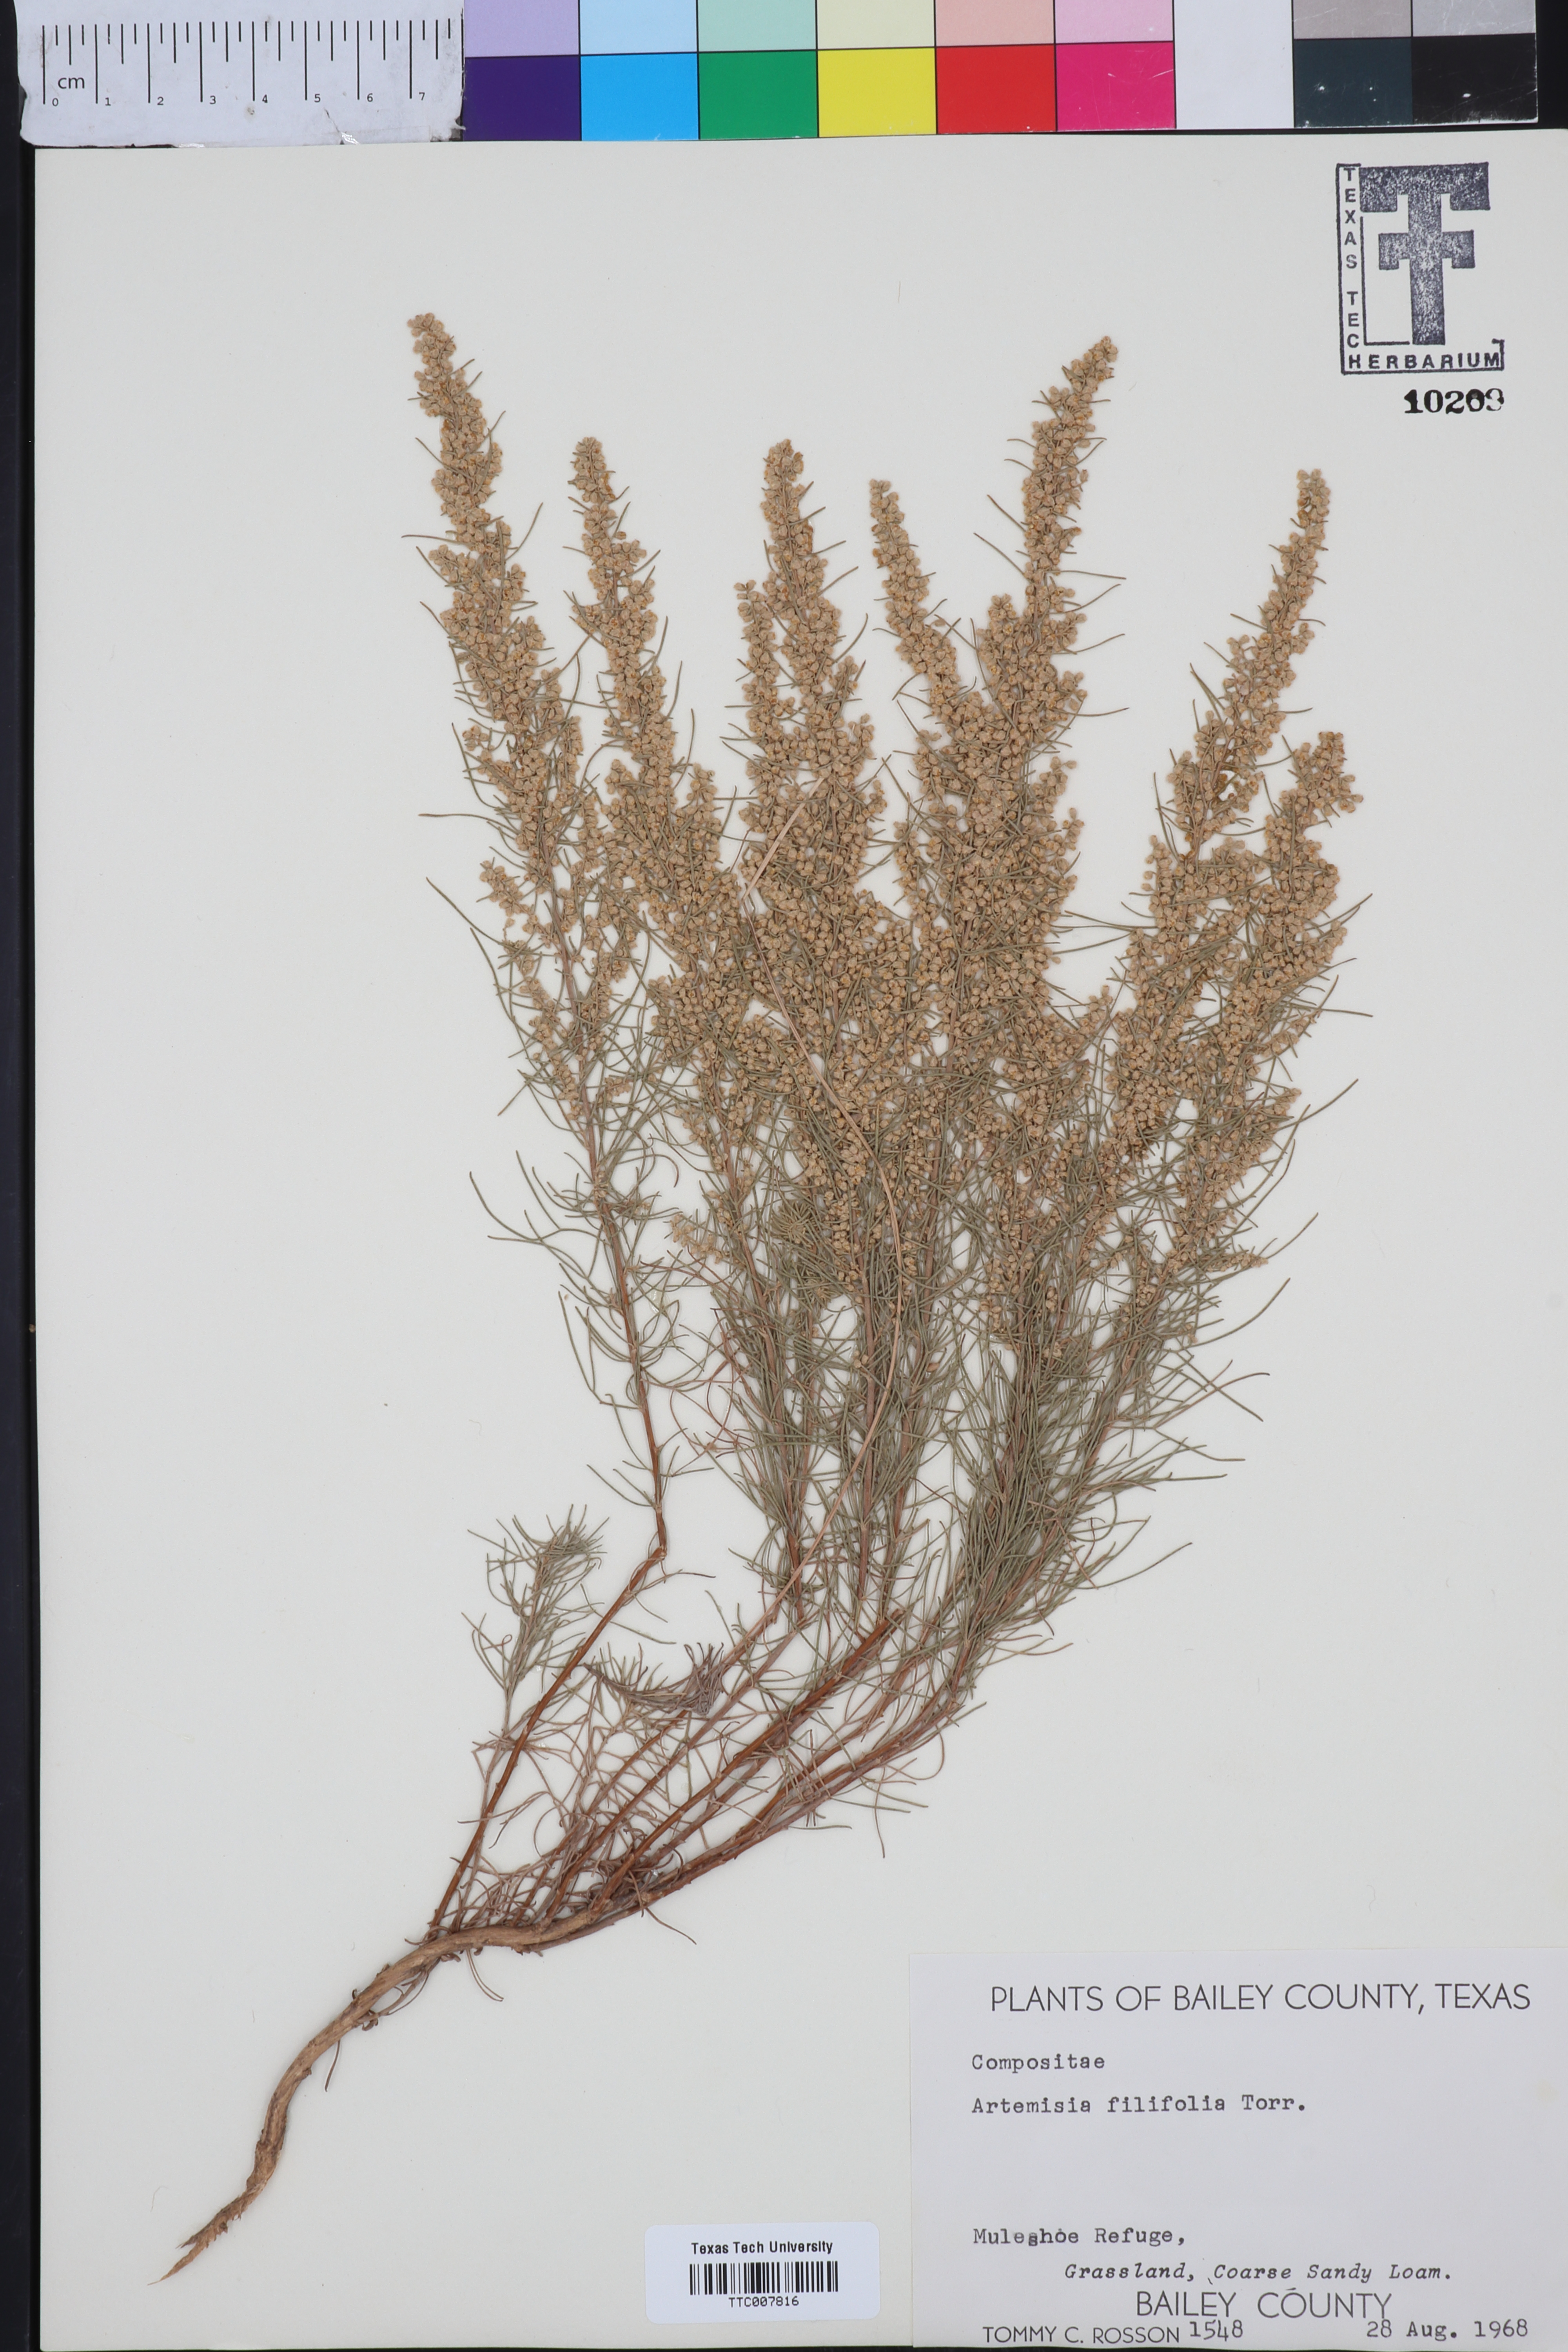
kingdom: Plantae
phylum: Tracheophyta
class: Magnoliopsida
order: Asterales
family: Asteraceae
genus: Artemisia
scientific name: Artemisia filifolia
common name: Sand-sage
